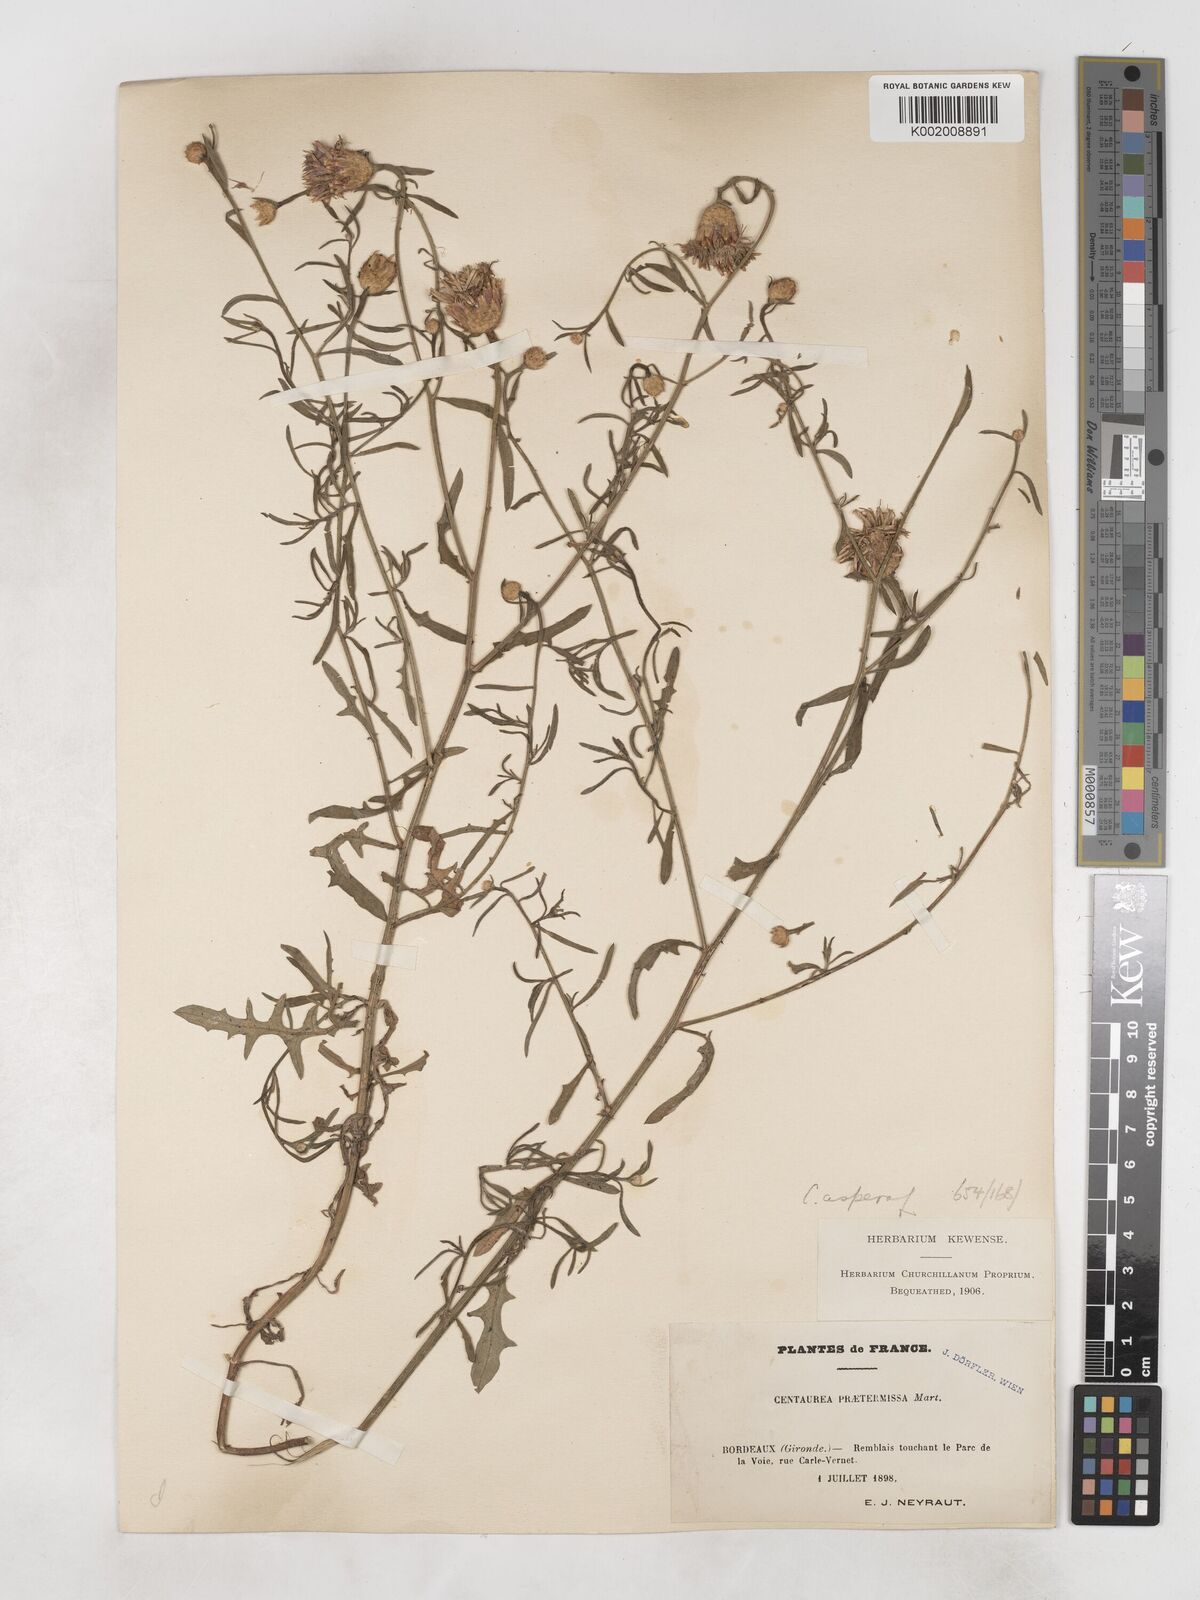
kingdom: Plantae
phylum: Tracheophyta
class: Magnoliopsida
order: Asterales
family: Asteraceae
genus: Centaurea
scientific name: Centaurea aspera
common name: Rough star-thistle
